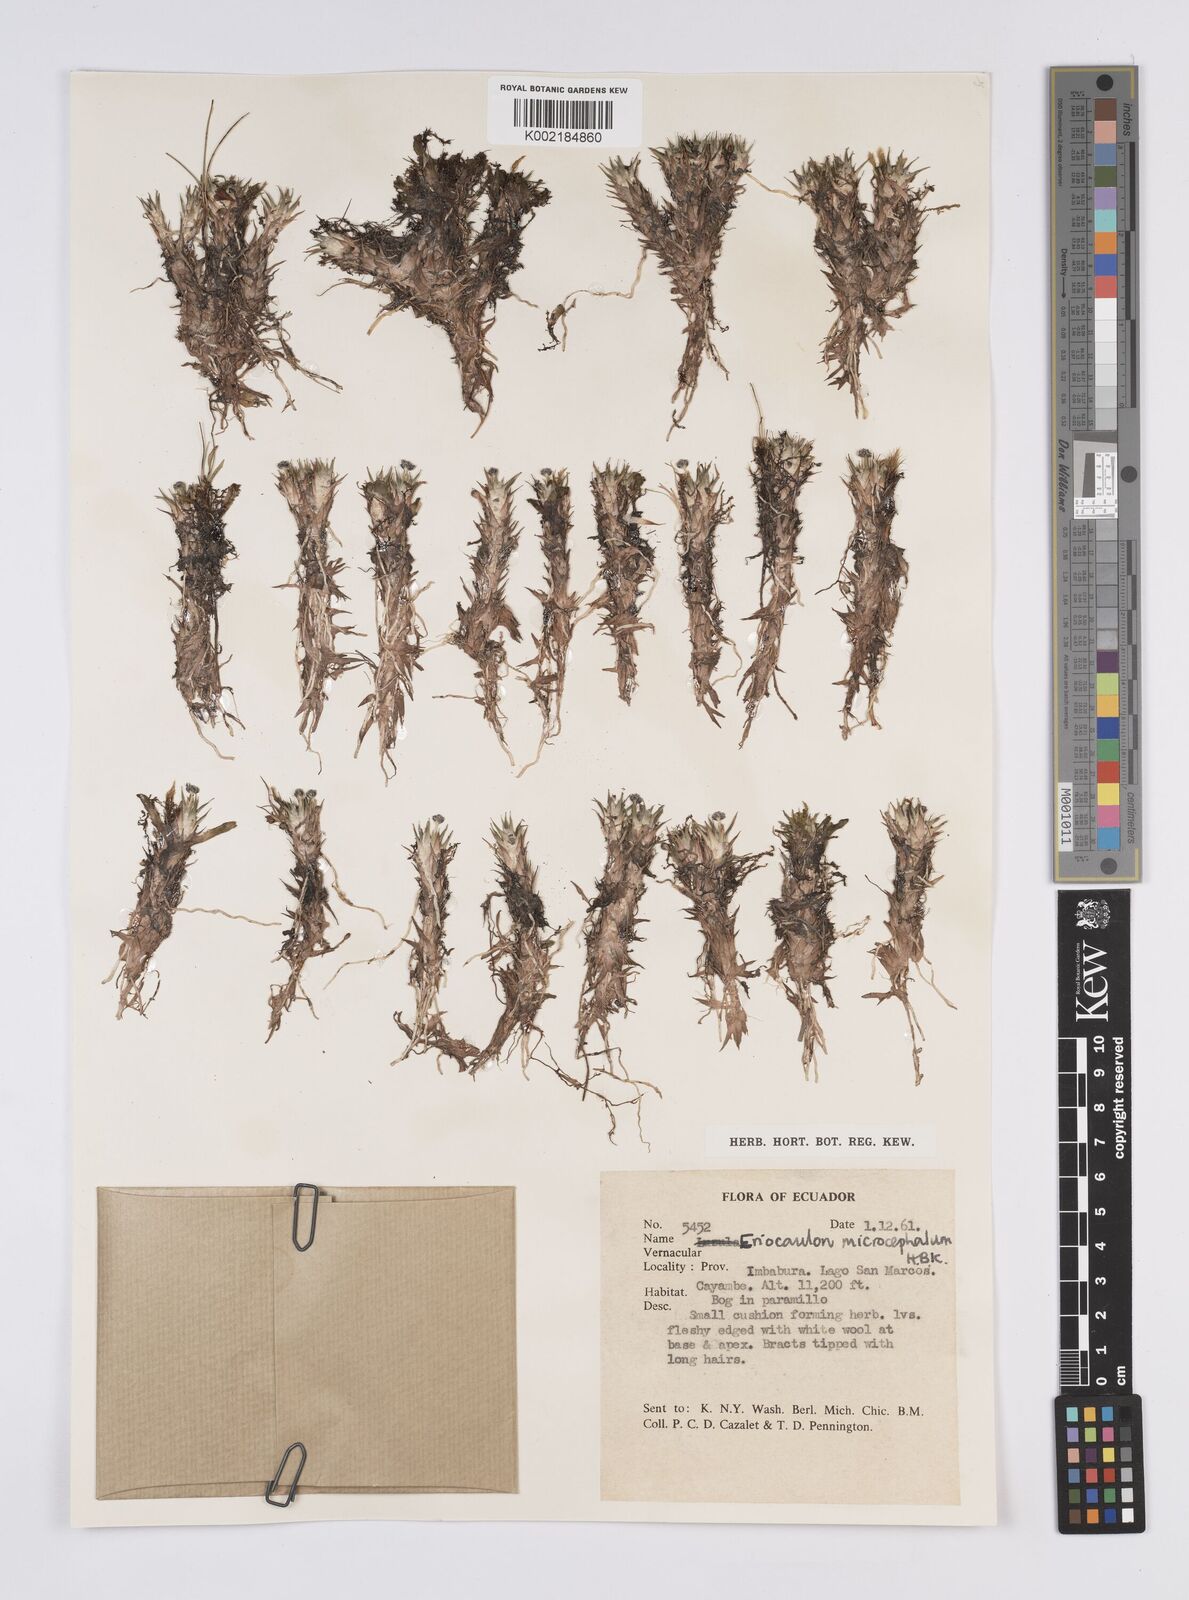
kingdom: Plantae
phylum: Tracheophyta
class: Liliopsida
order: Poales
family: Eriocaulaceae
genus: Eriocaulon
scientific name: Eriocaulon benthamii
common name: Bentham's pipewort
